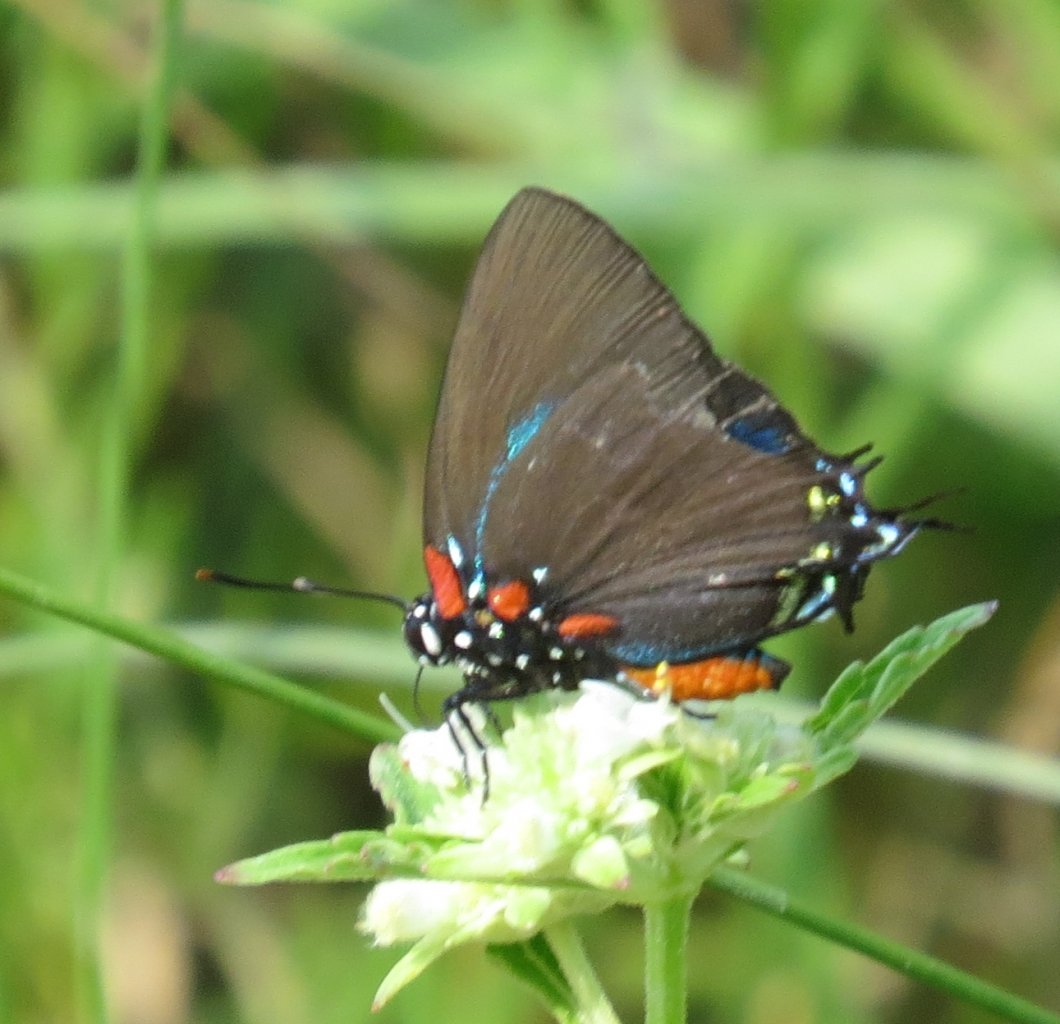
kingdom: Animalia
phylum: Arthropoda
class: Insecta
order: Lepidoptera
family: Lycaenidae
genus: Atlides
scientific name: Atlides halesus
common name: Great Purple Hairstreak
